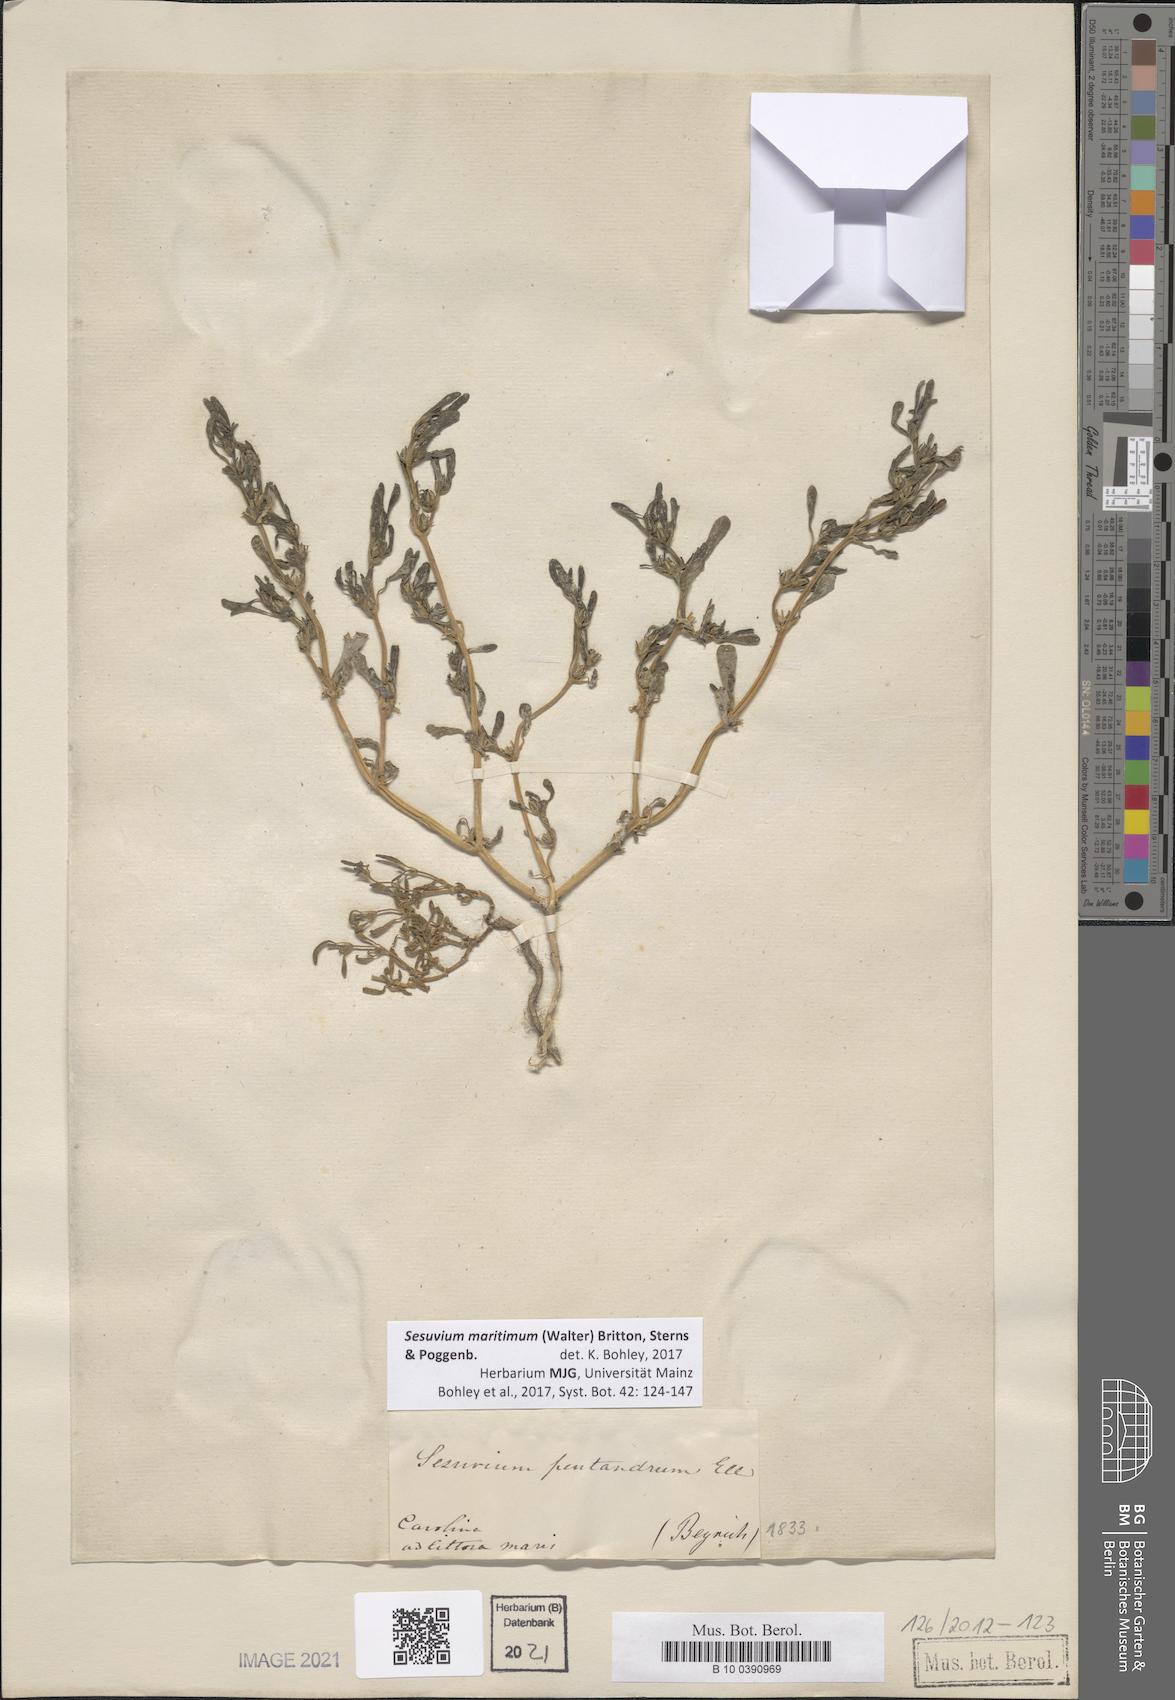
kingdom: Plantae
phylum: Tracheophyta
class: Magnoliopsida
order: Caryophyllales
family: Aizoaceae
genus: Sesuvium
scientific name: Sesuvium maritimum
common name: Slender sea-purslane
